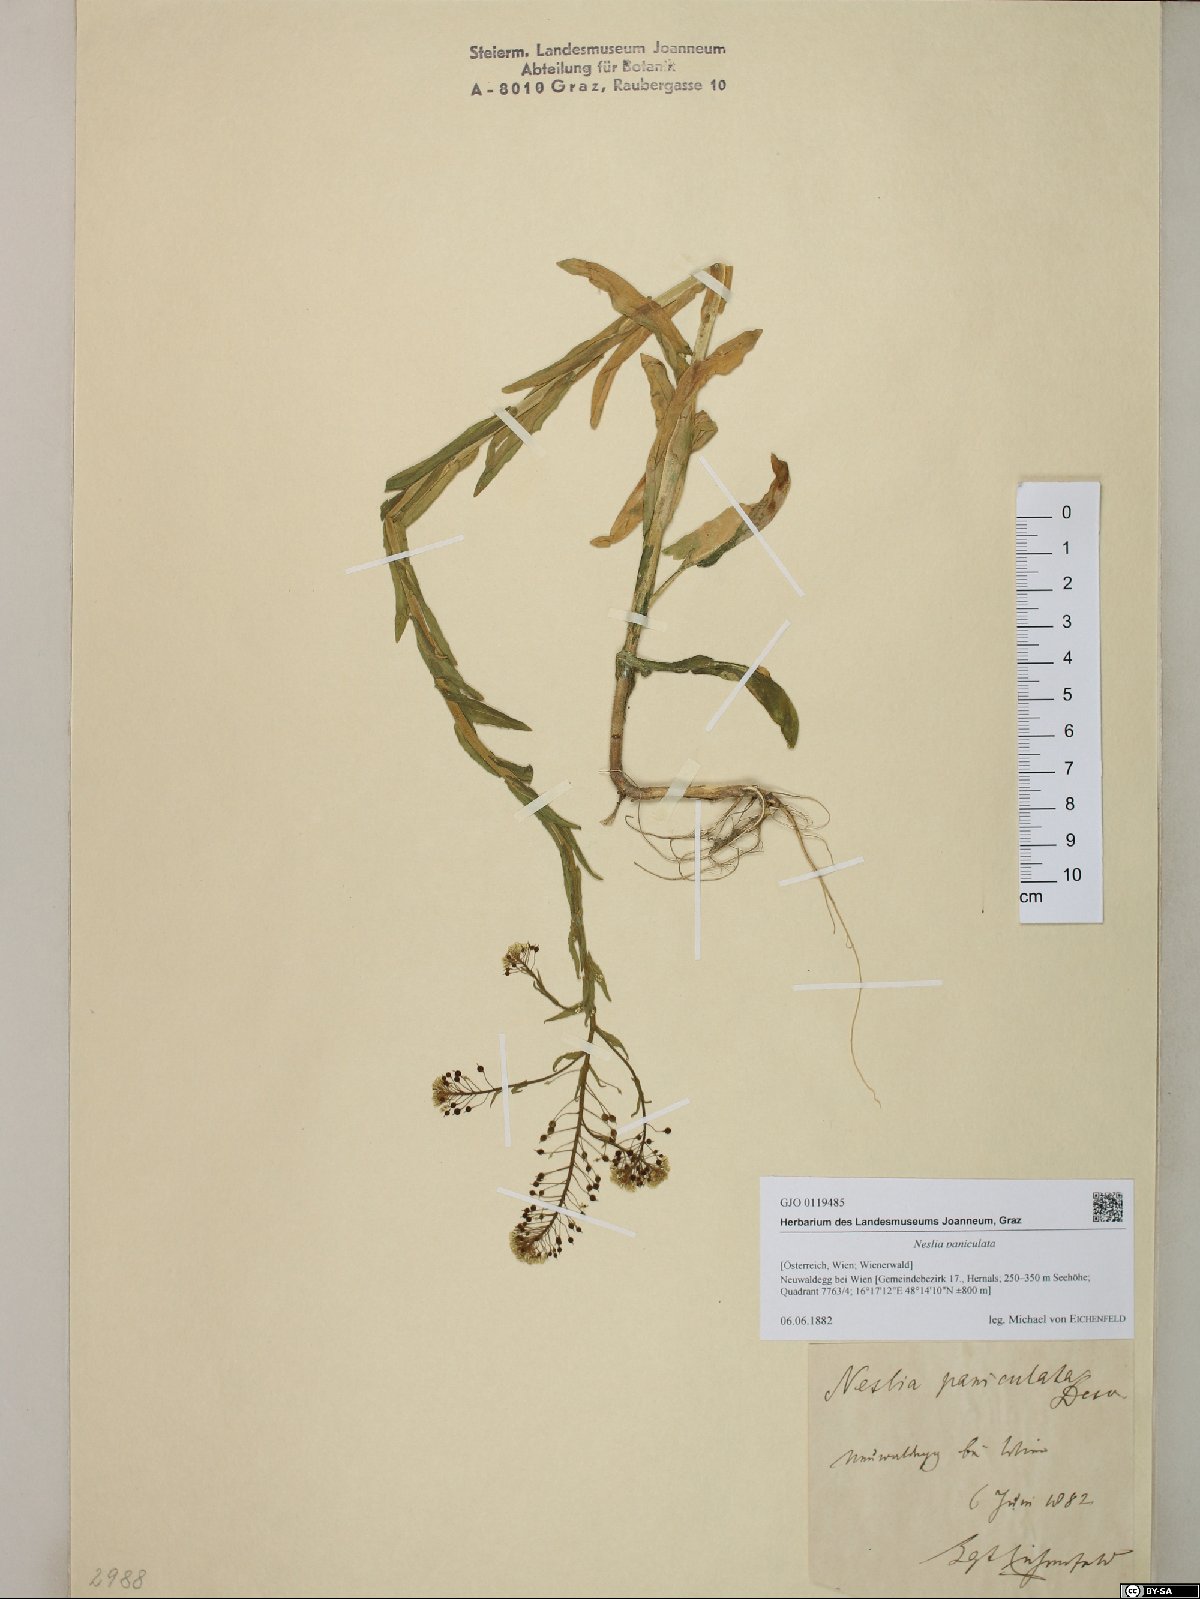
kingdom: Plantae
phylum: Tracheophyta
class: Magnoliopsida
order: Brassicales
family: Brassicaceae
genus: Neslia
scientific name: Neslia paniculata
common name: Ball mustard
